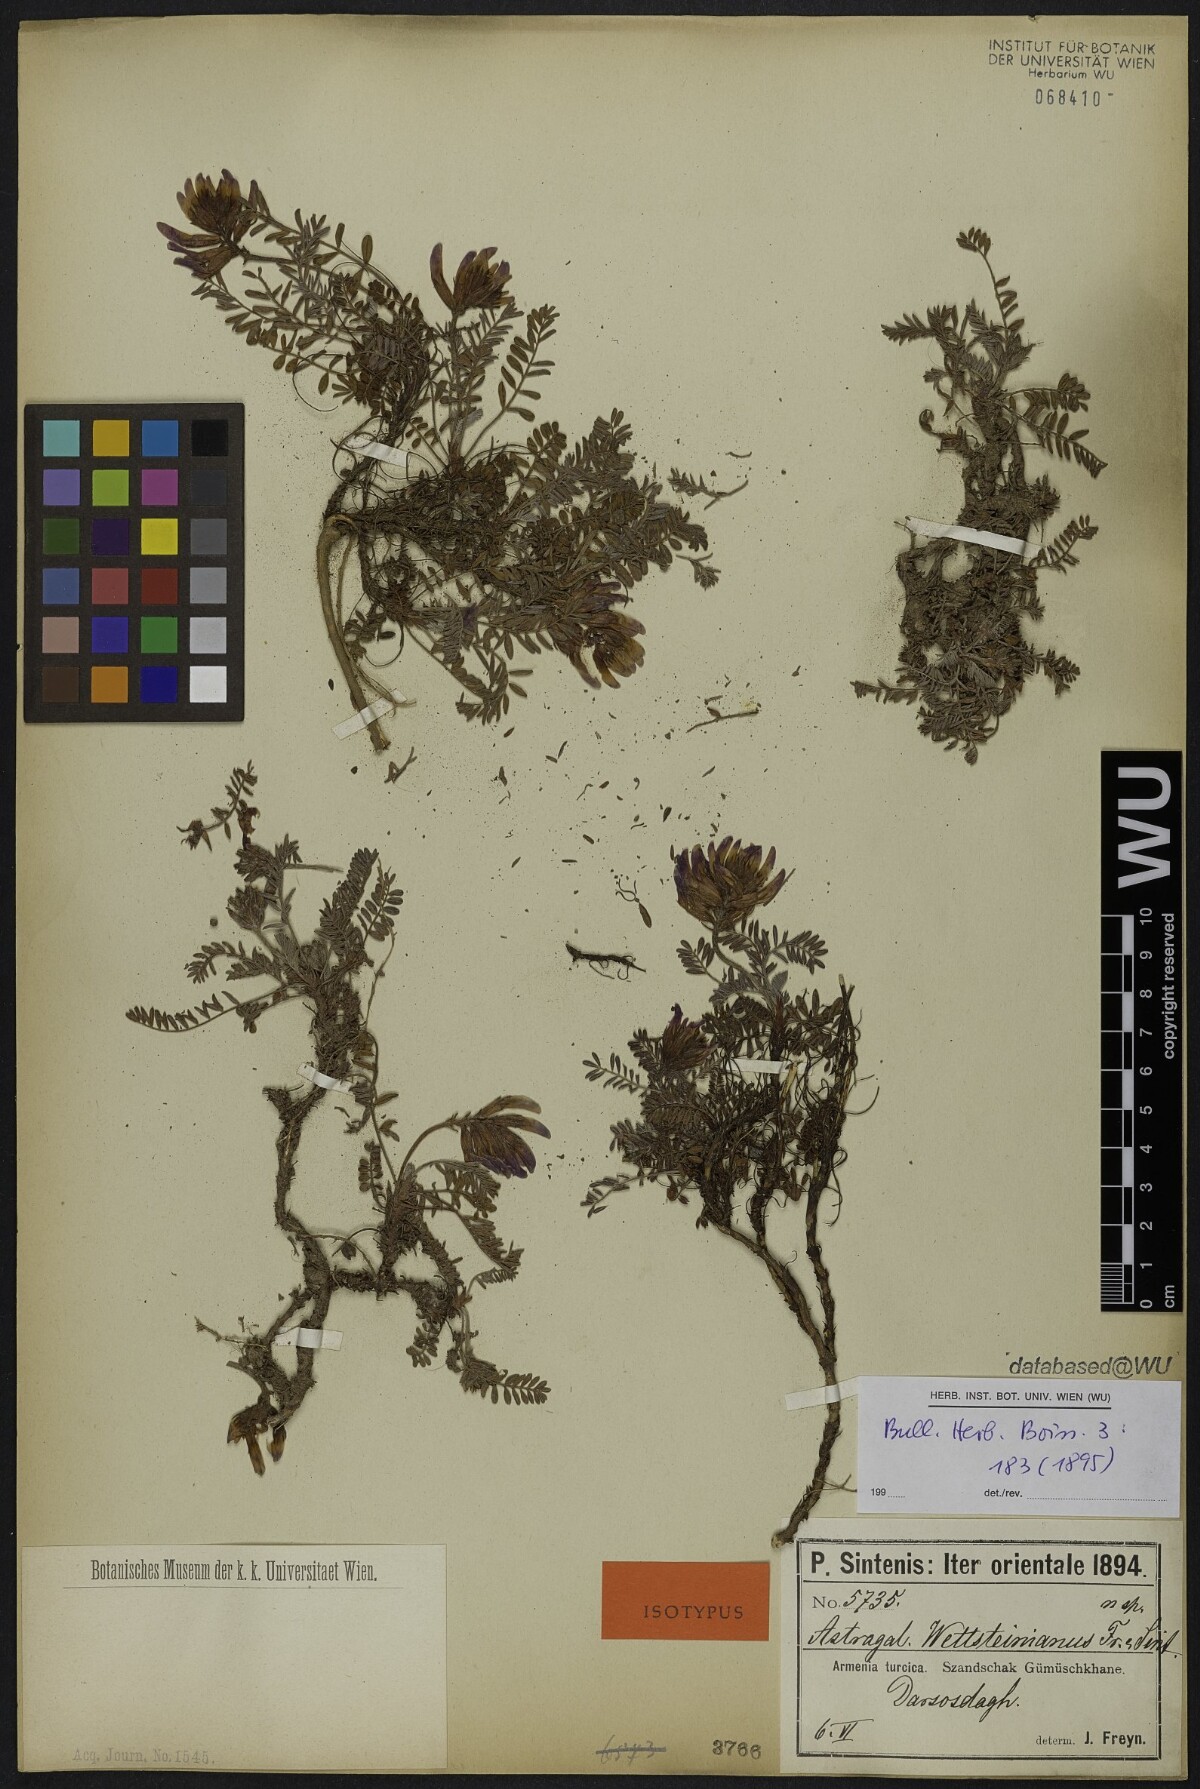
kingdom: Plantae
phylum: Tracheophyta
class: Magnoliopsida
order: Fabales
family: Fabaceae
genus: Astragalus
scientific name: Astragalus amoenus
